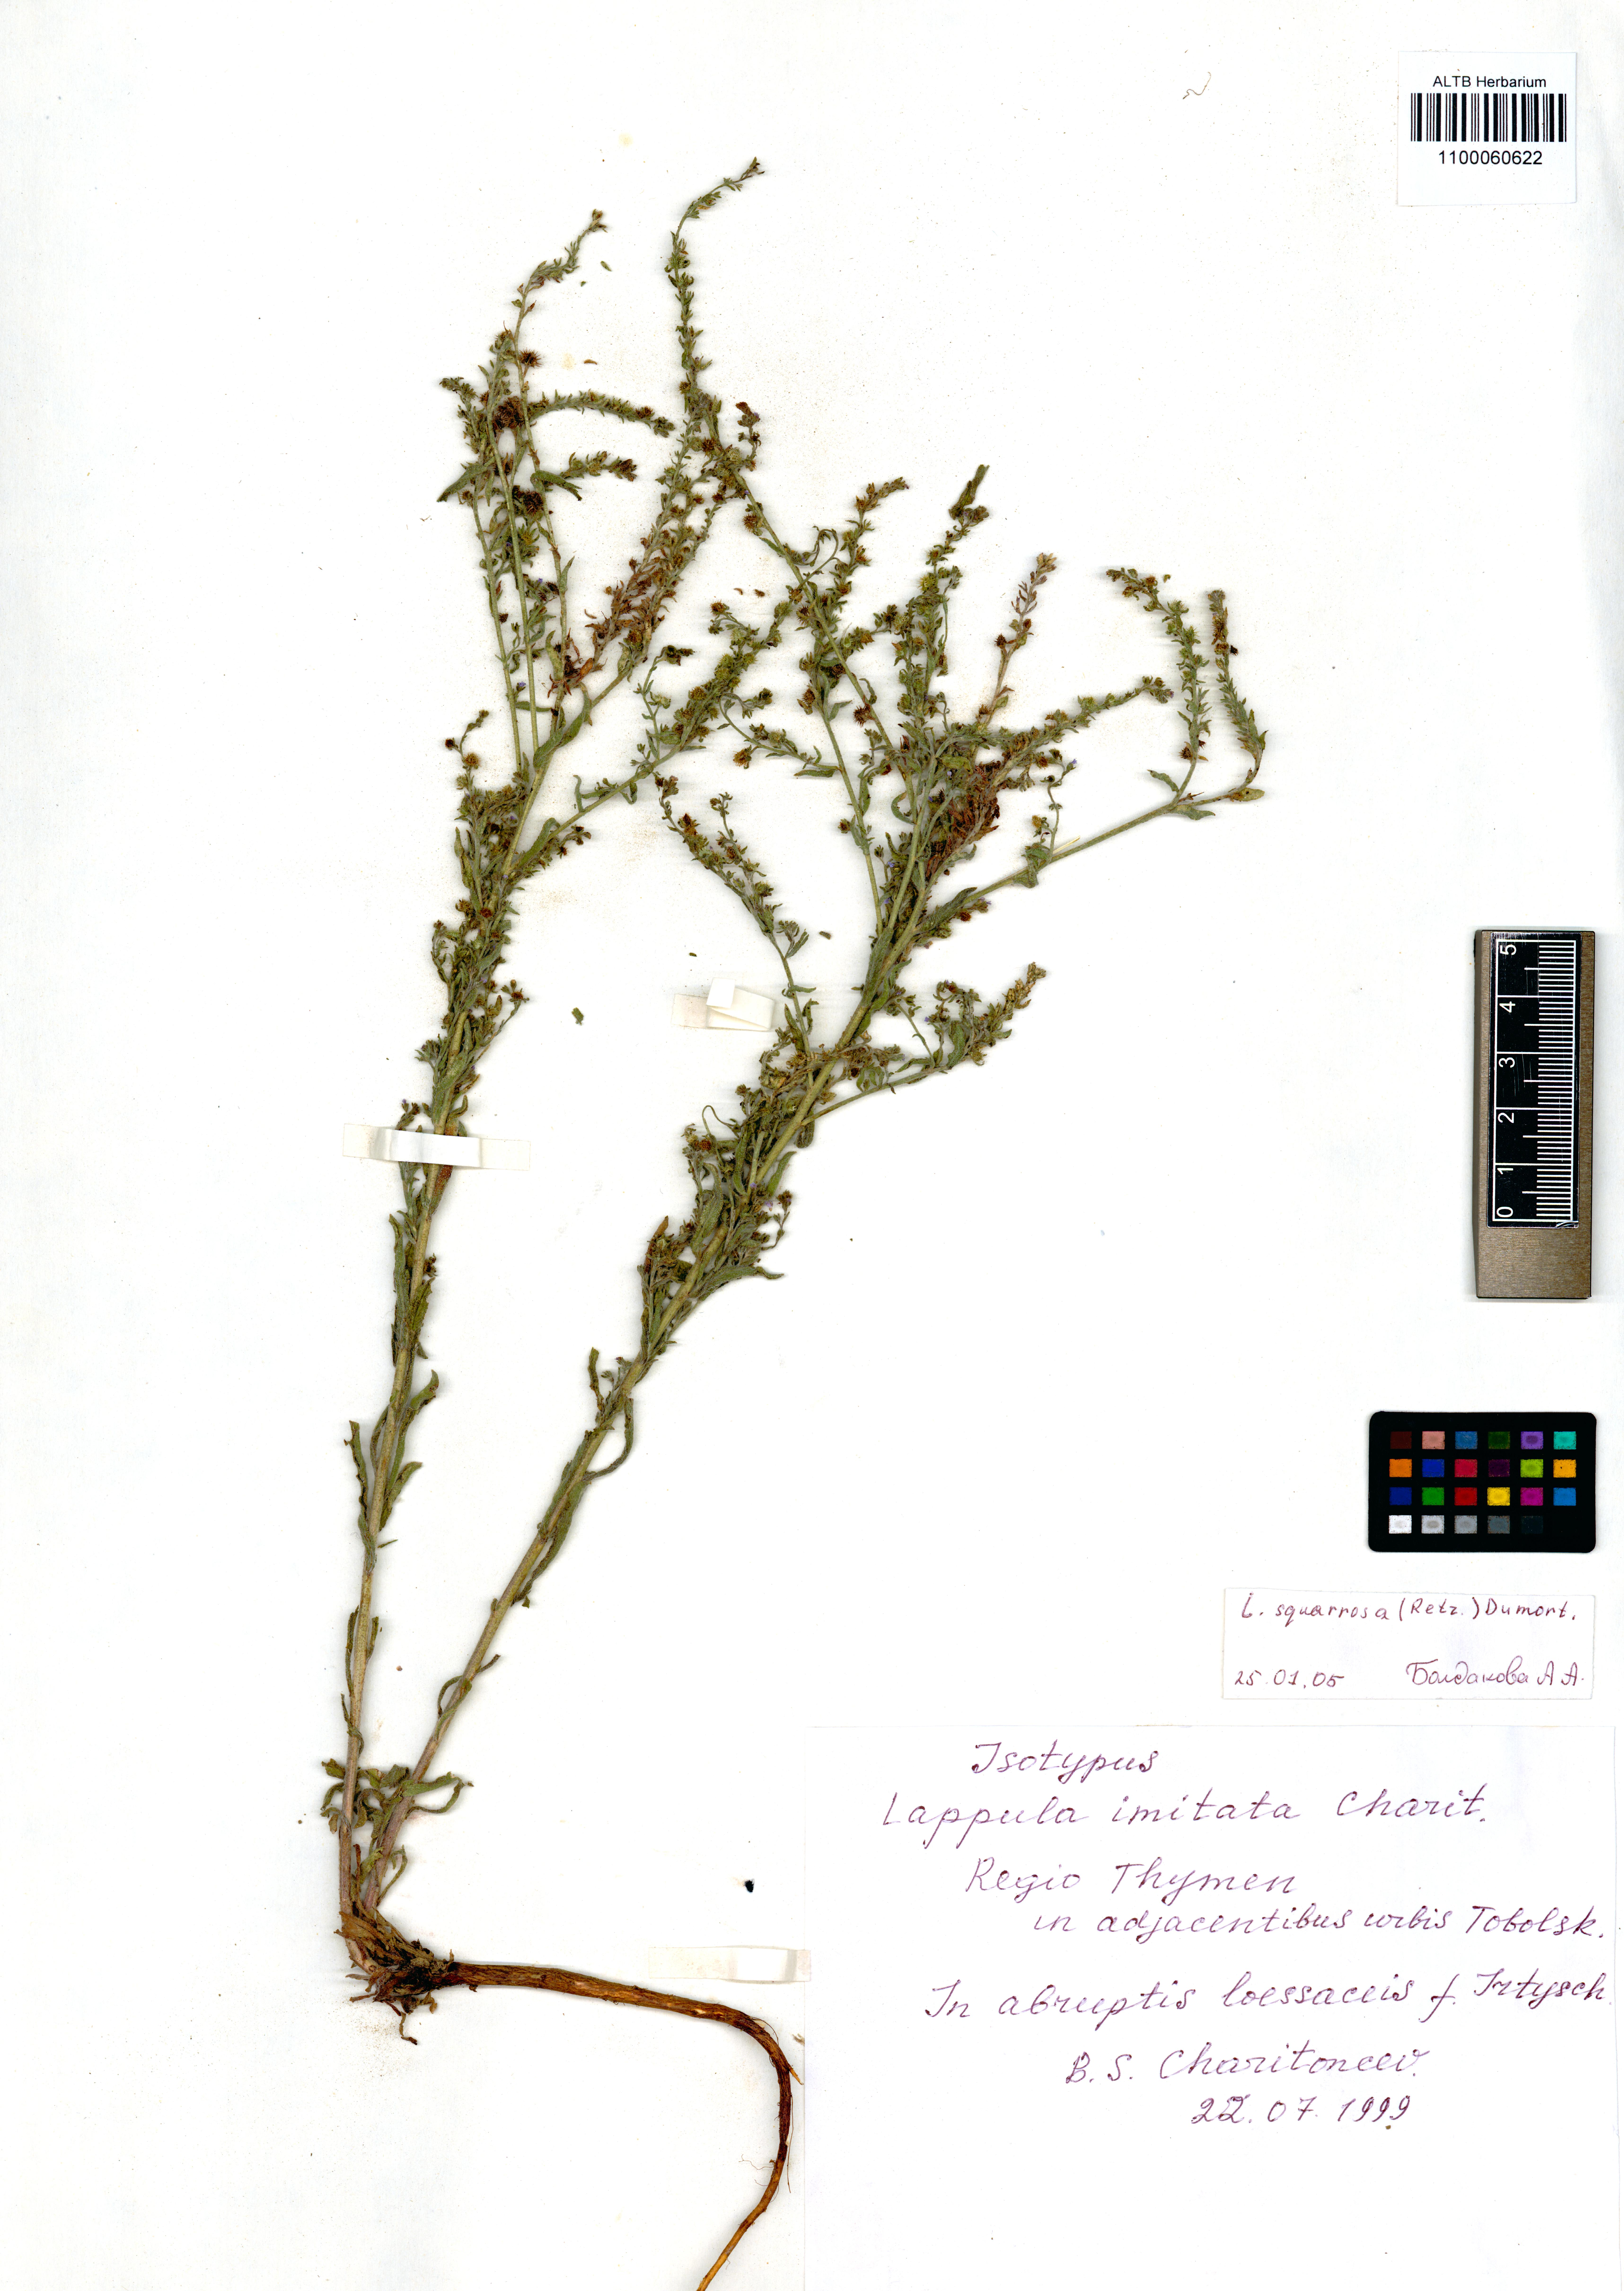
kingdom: Plantae
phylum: Tracheophyta
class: Magnoliopsida
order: Boraginales
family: Boraginaceae
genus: Lappula
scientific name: Lappula squarrosa
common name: European stickseed
